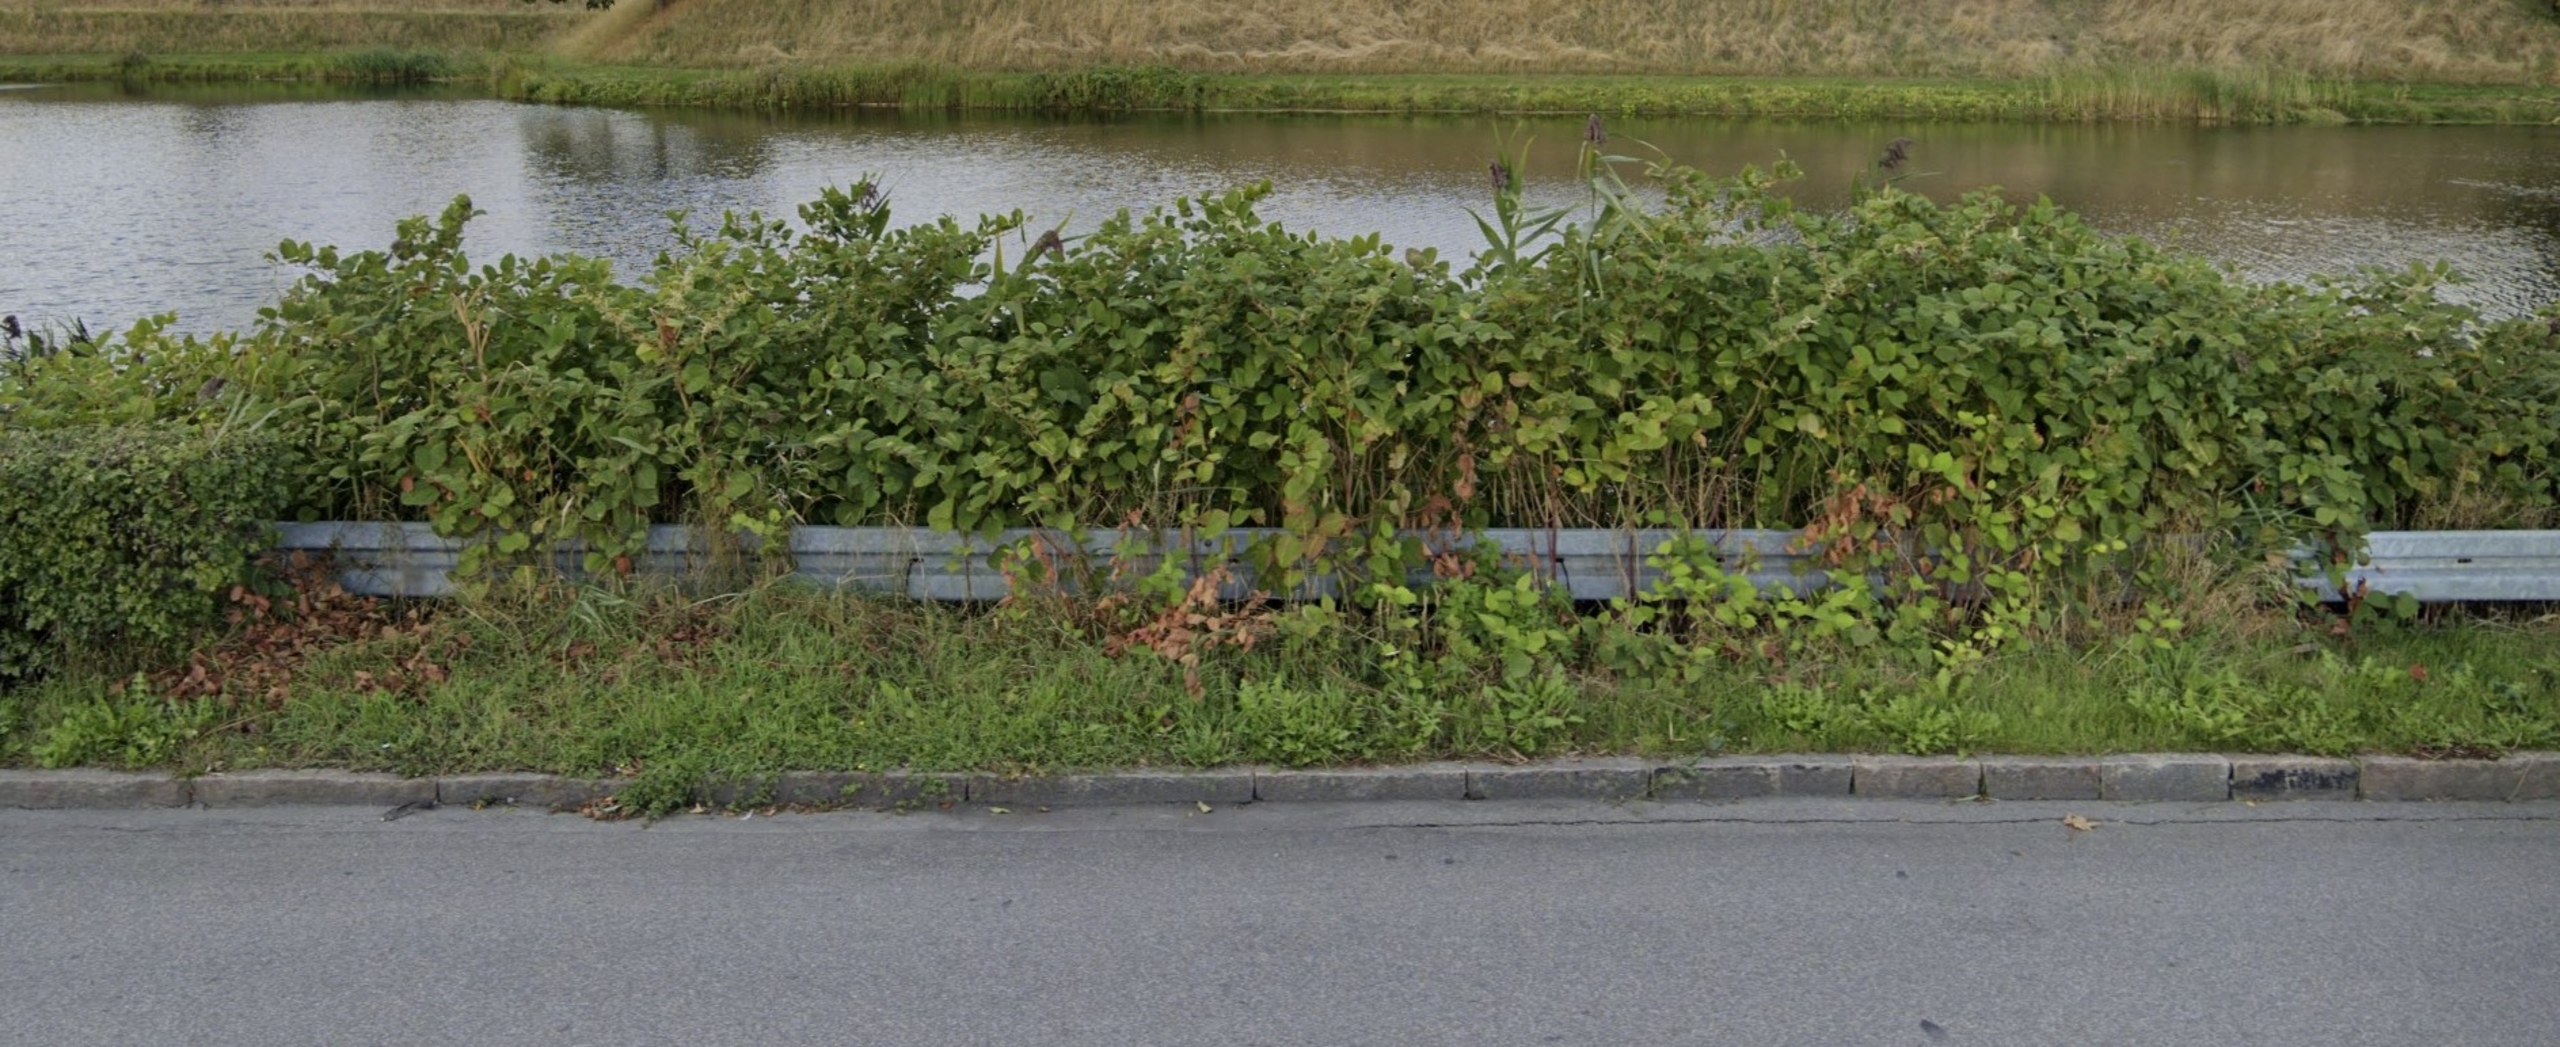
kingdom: Plantae
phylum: Tracheophyta
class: Magnoliopsida
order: Caryophyllales
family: Polygonaceae
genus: Reynoutria
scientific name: Reynoutria japonica
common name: Japan-pileurt
